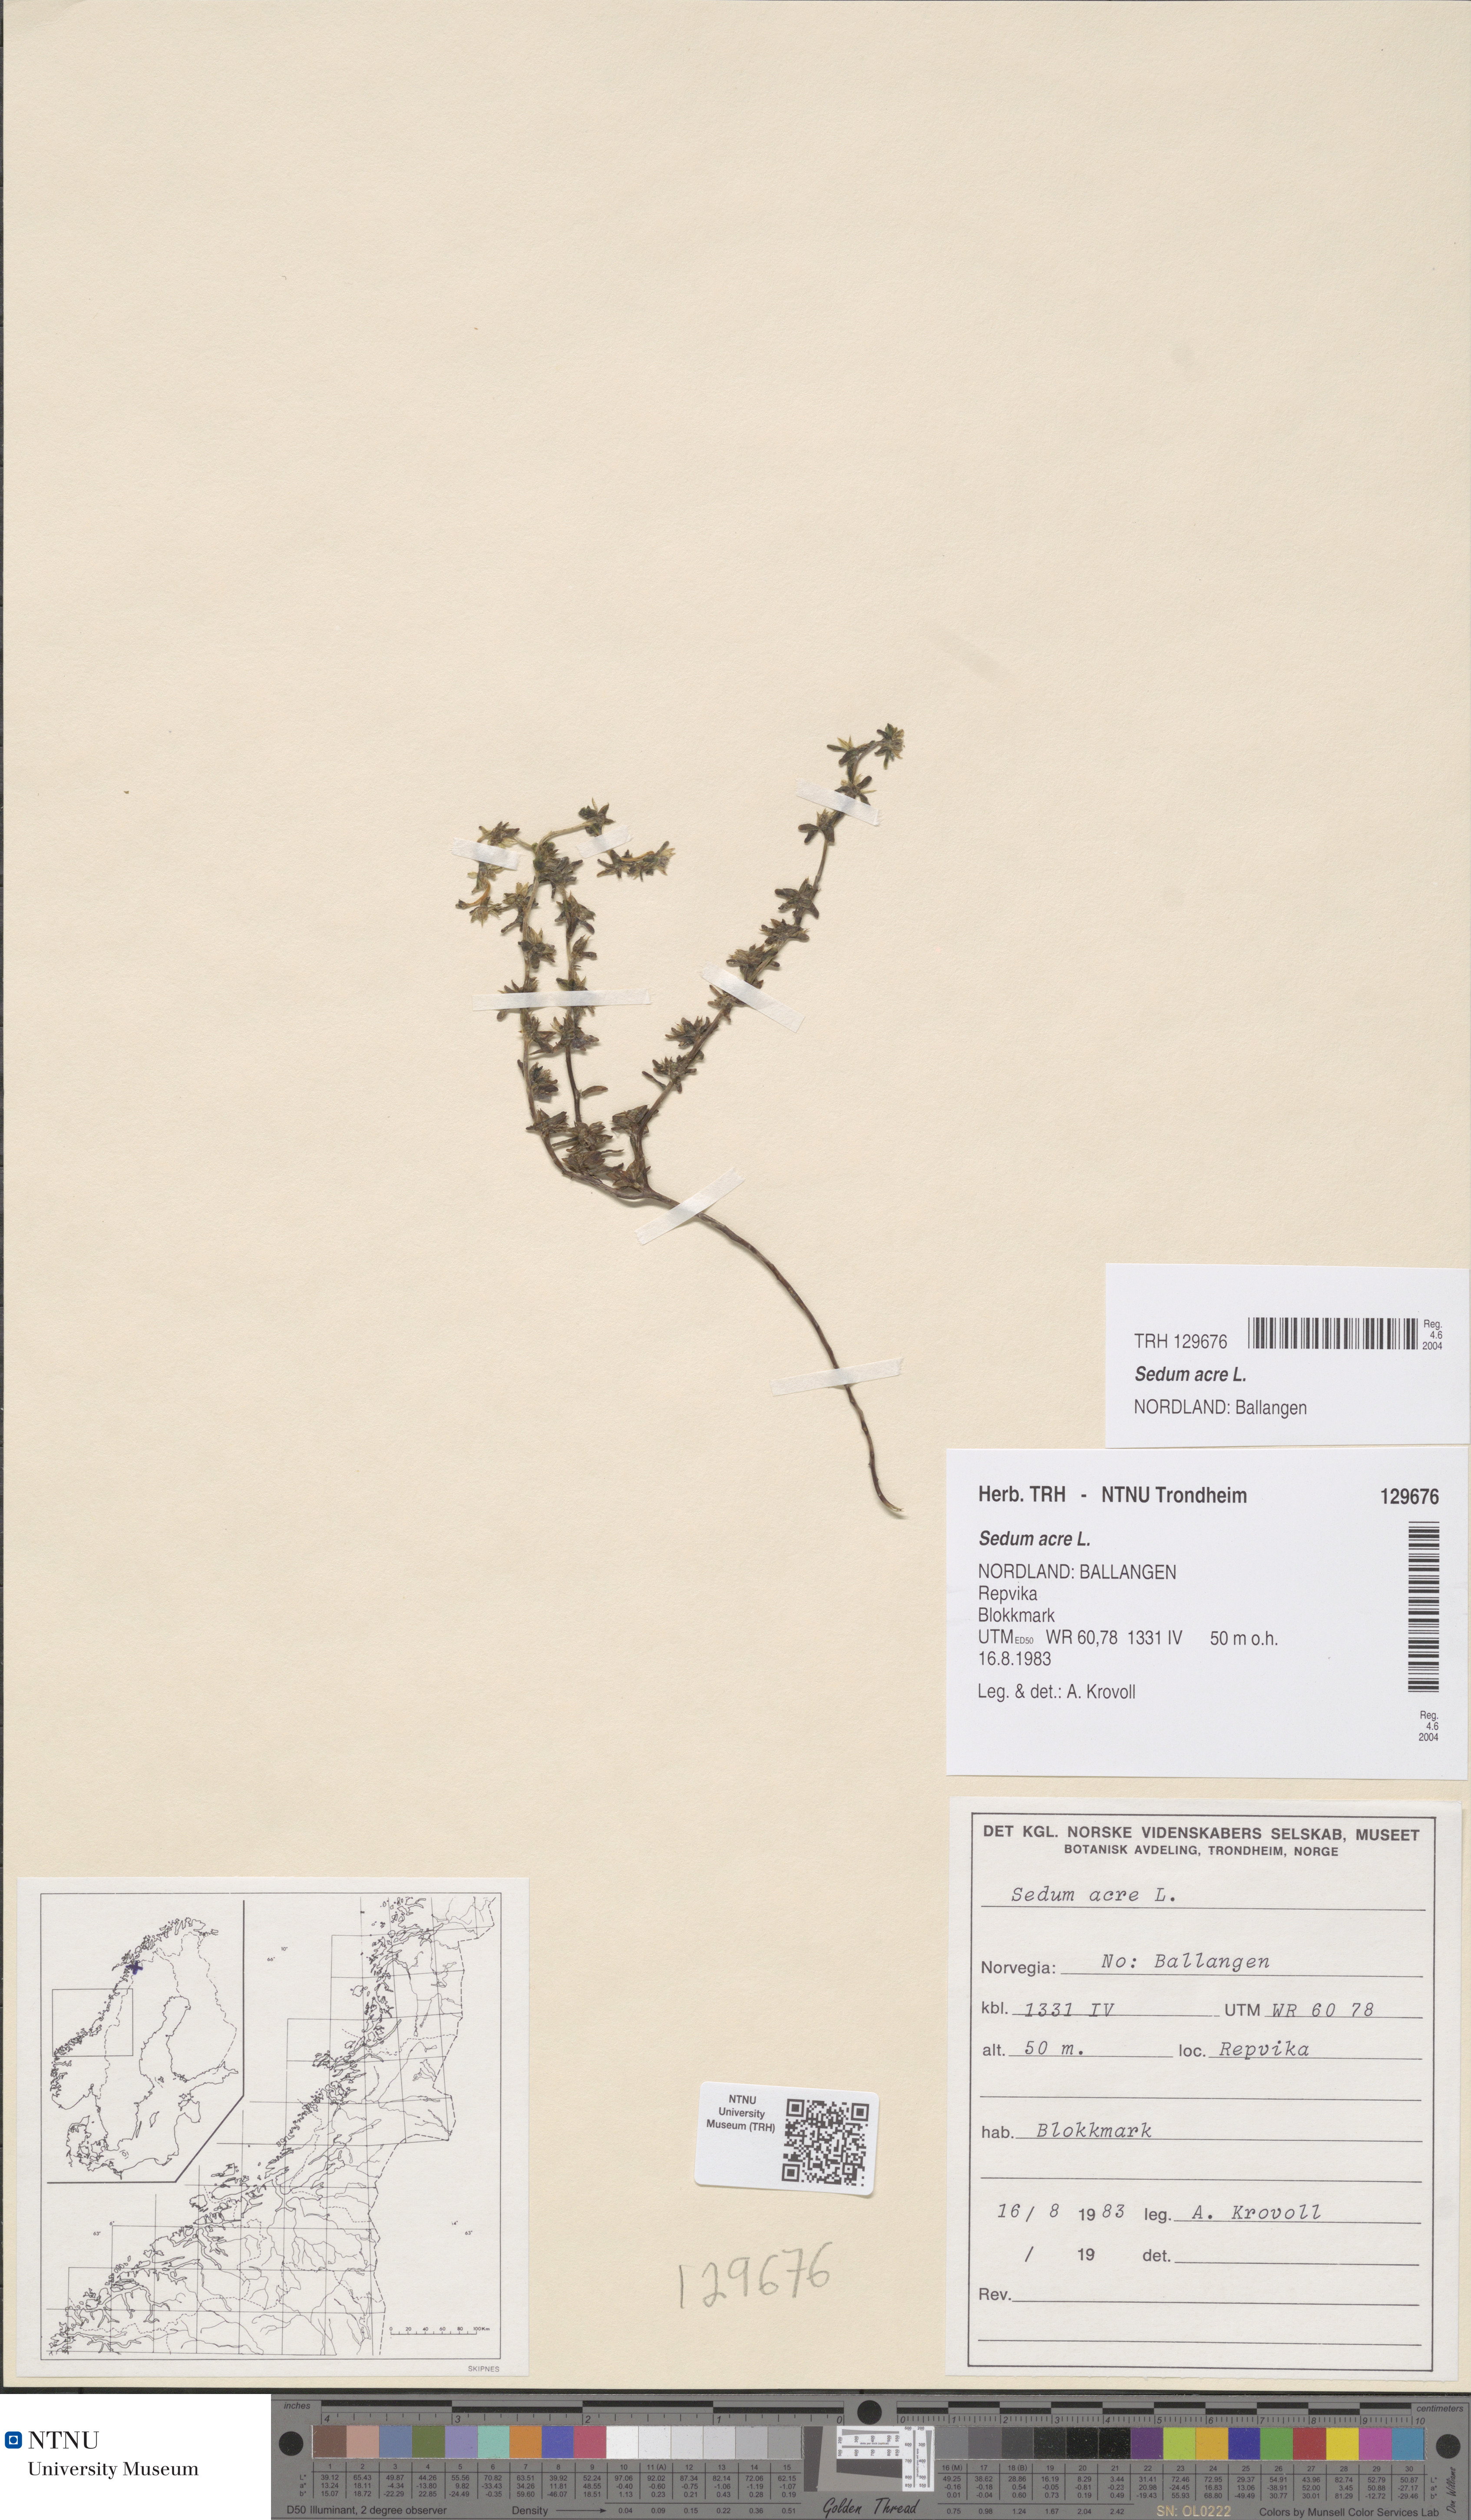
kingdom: Plantae
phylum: Tracheophyta
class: Magnoliopsida
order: Saxifragales
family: Crassulaceae
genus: Sedum
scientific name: Sedum acre
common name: Biting stonecrop
